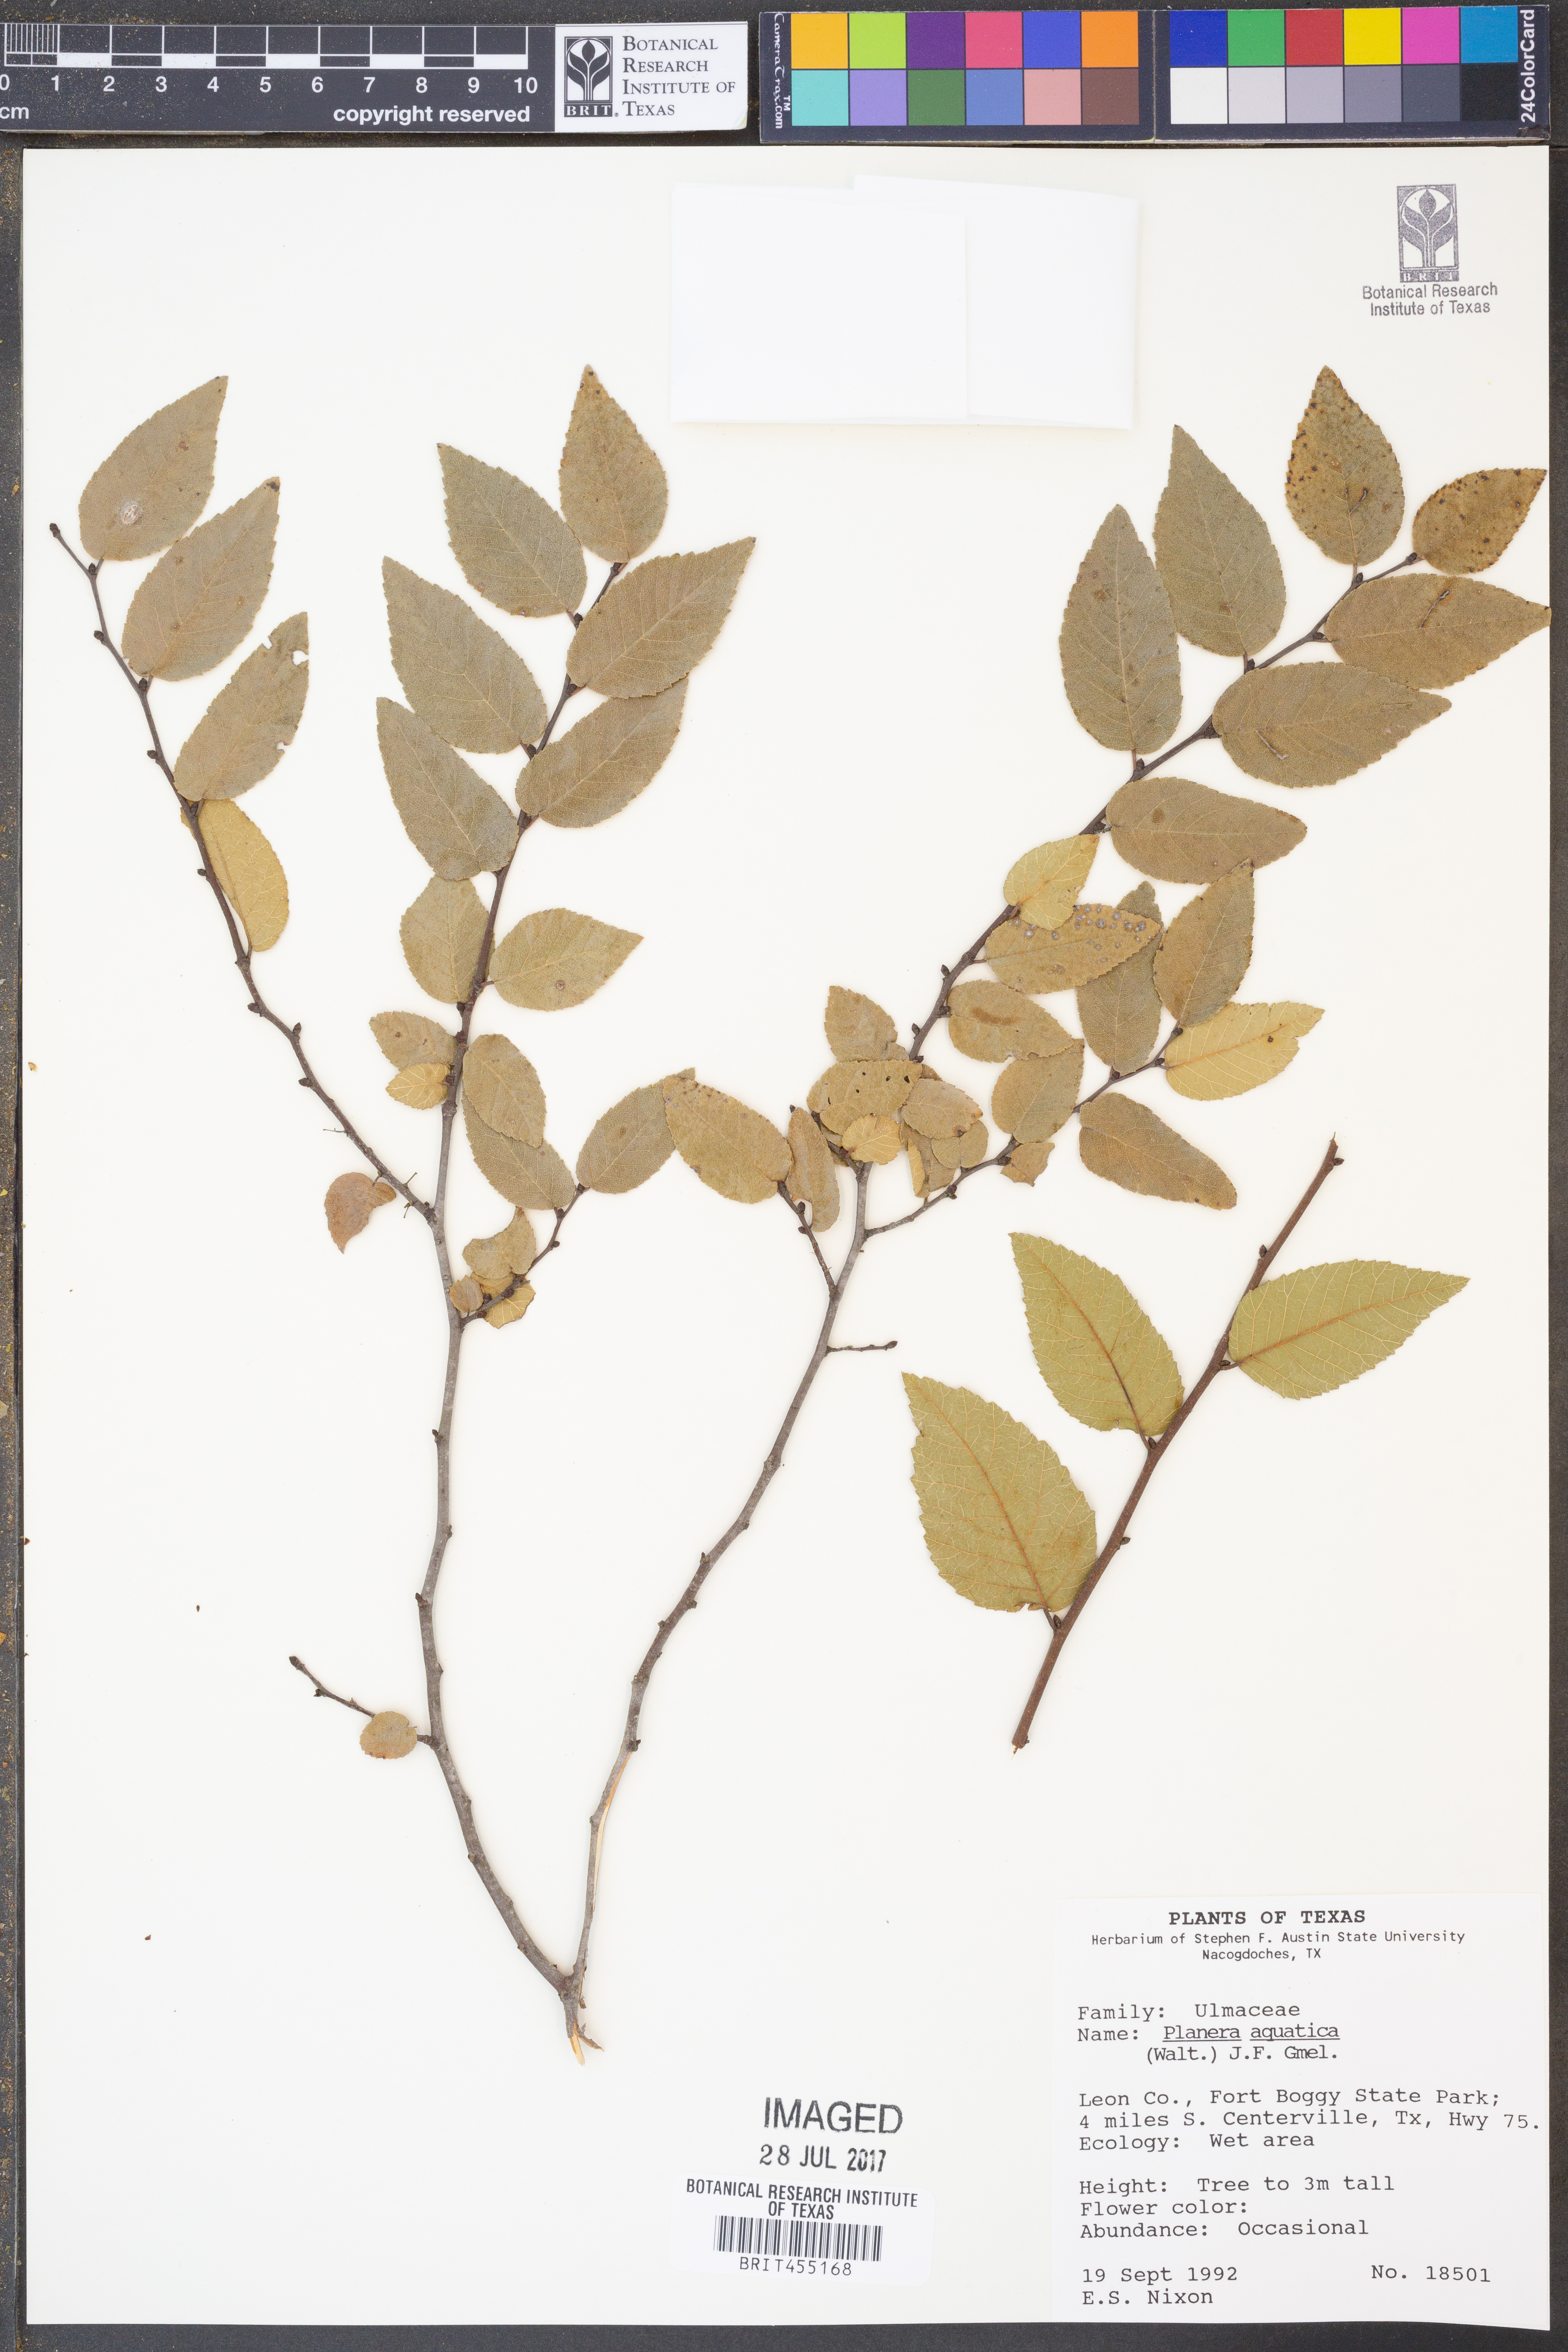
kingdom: Plantae
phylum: Tracheophyta
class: Magnoliopsida
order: Rosales
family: Ulmaceae
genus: Planera
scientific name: Planera aquatica
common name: Water-elm
